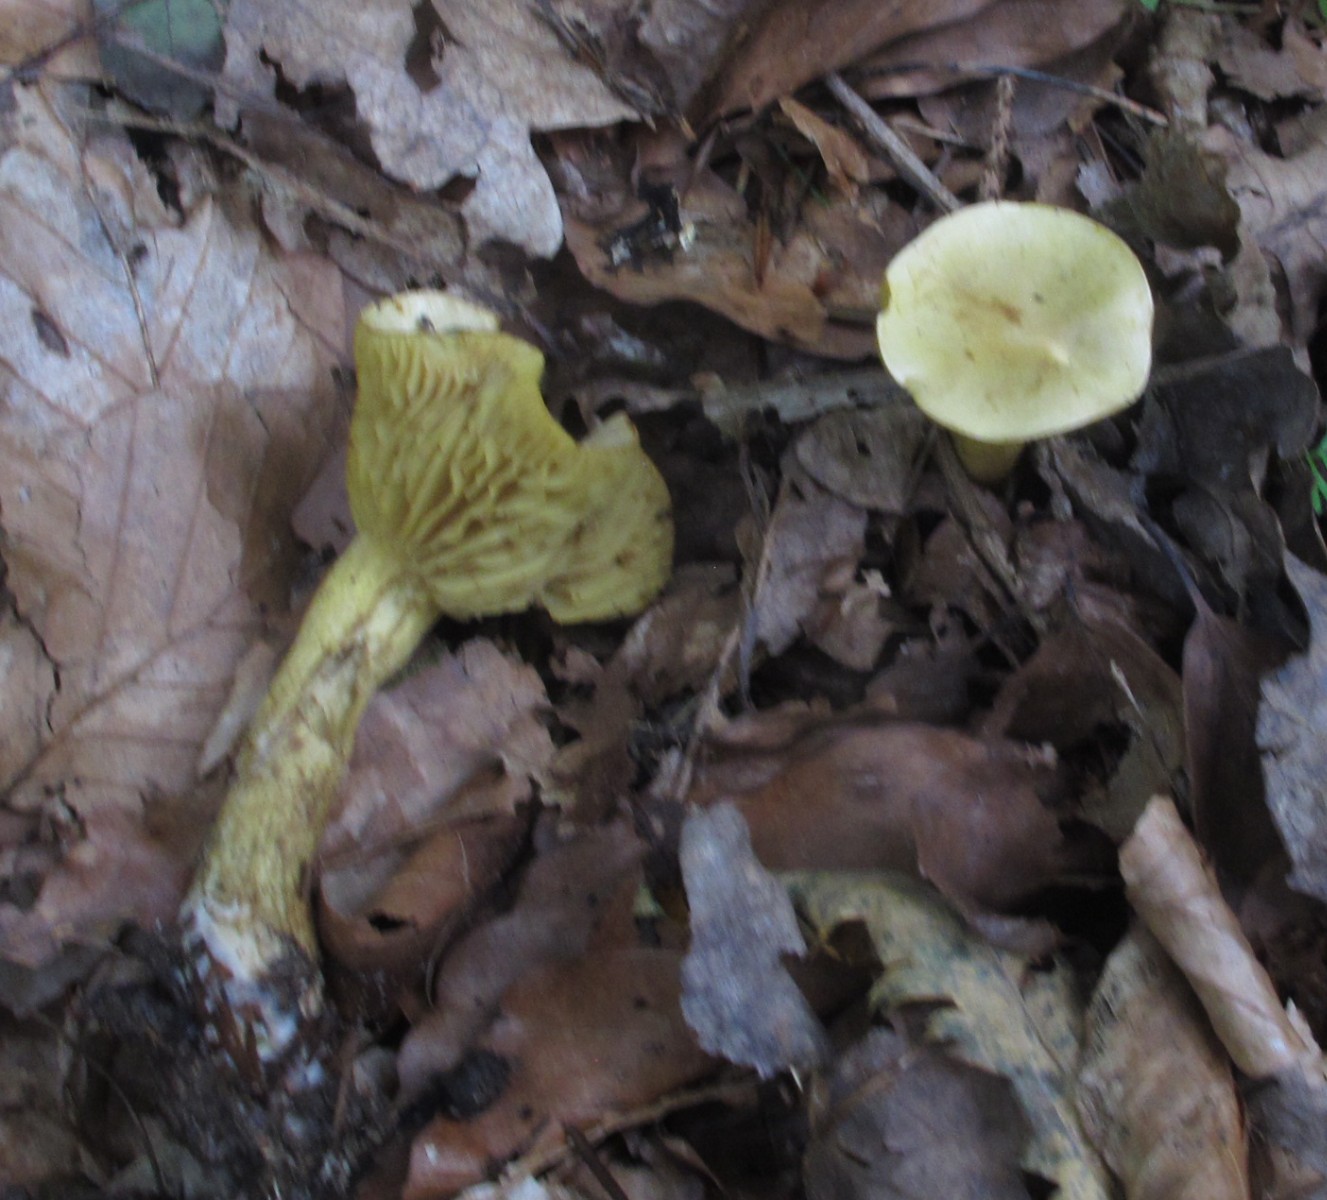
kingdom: Fungi
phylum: Basidiomycota
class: Agaricomycetes
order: Agaricales
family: Tricholomataceae
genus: Tricholoma
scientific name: Tricholoma sulphureum
